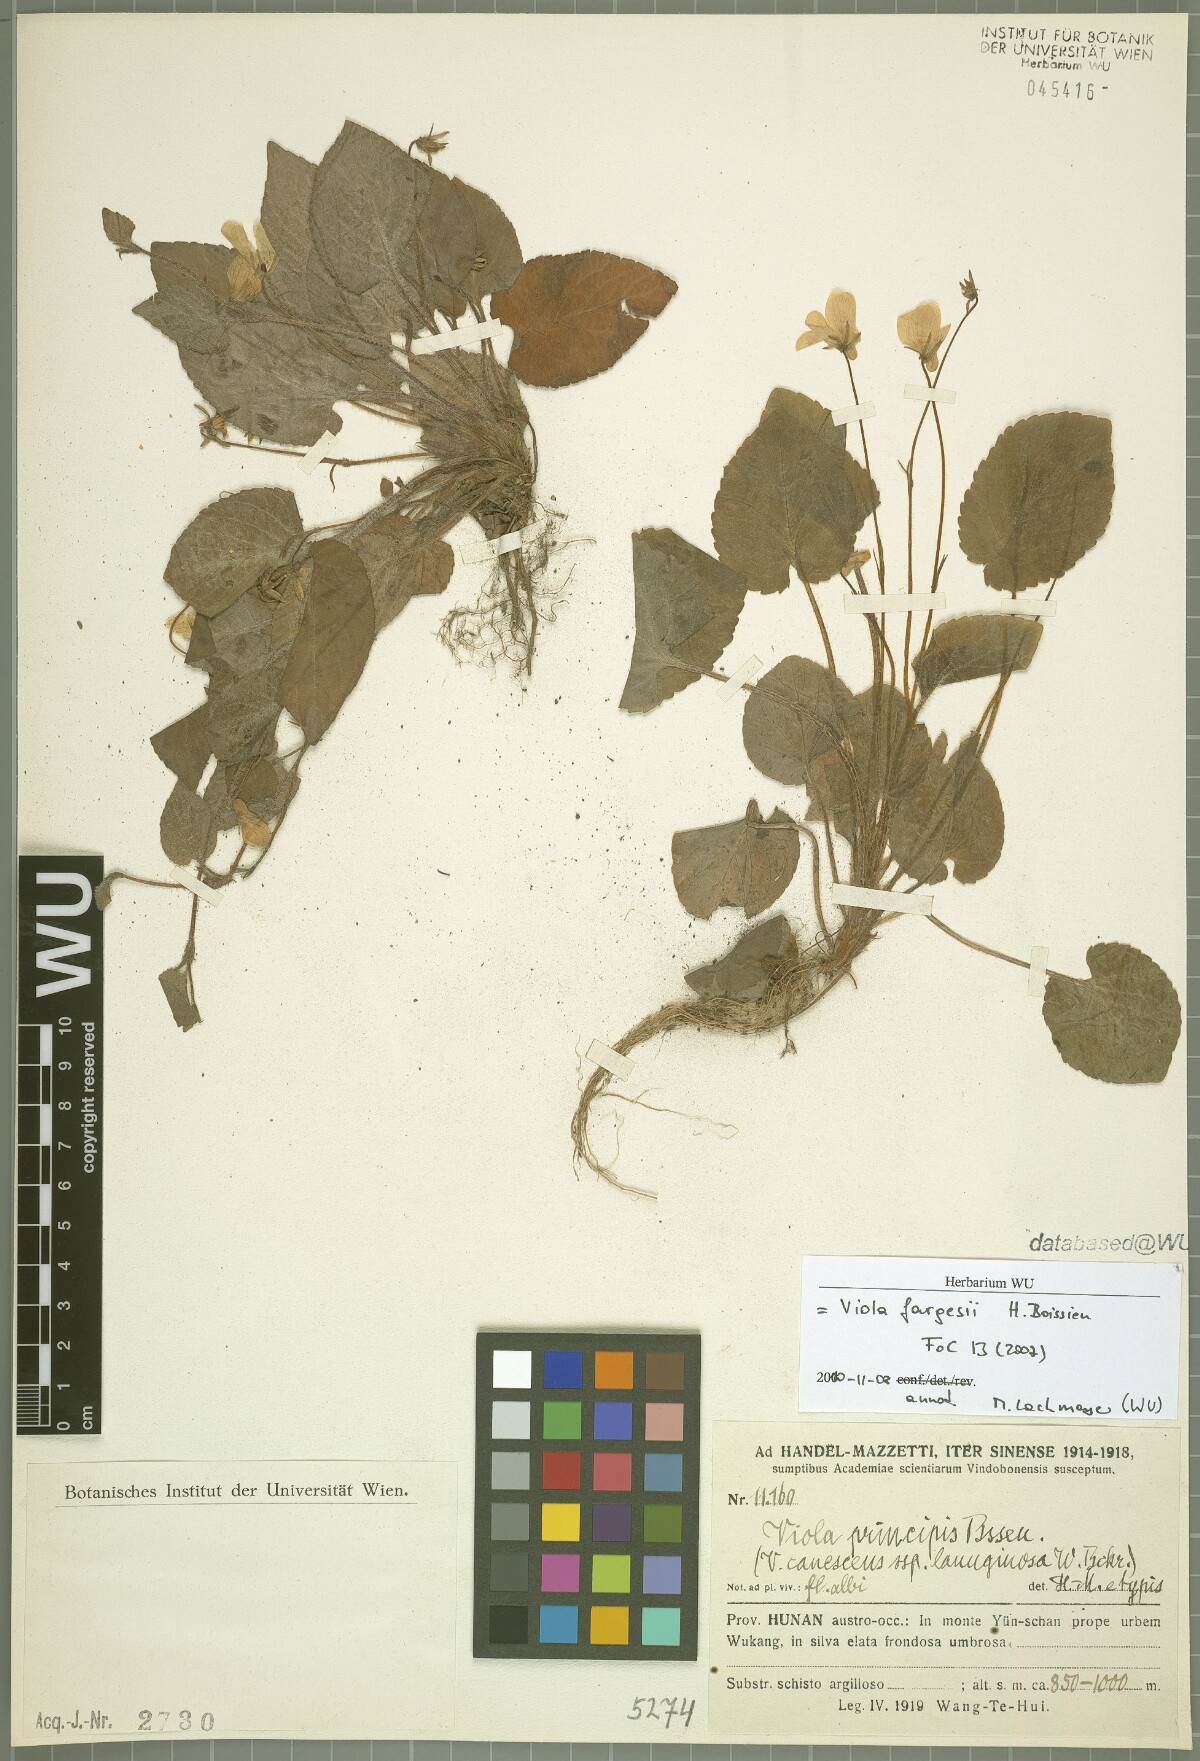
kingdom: Plantae
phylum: Tracheophyta
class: Magnoliopsida
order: Malpighiales
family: Violaceae
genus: Viola
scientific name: Viola fargesii
